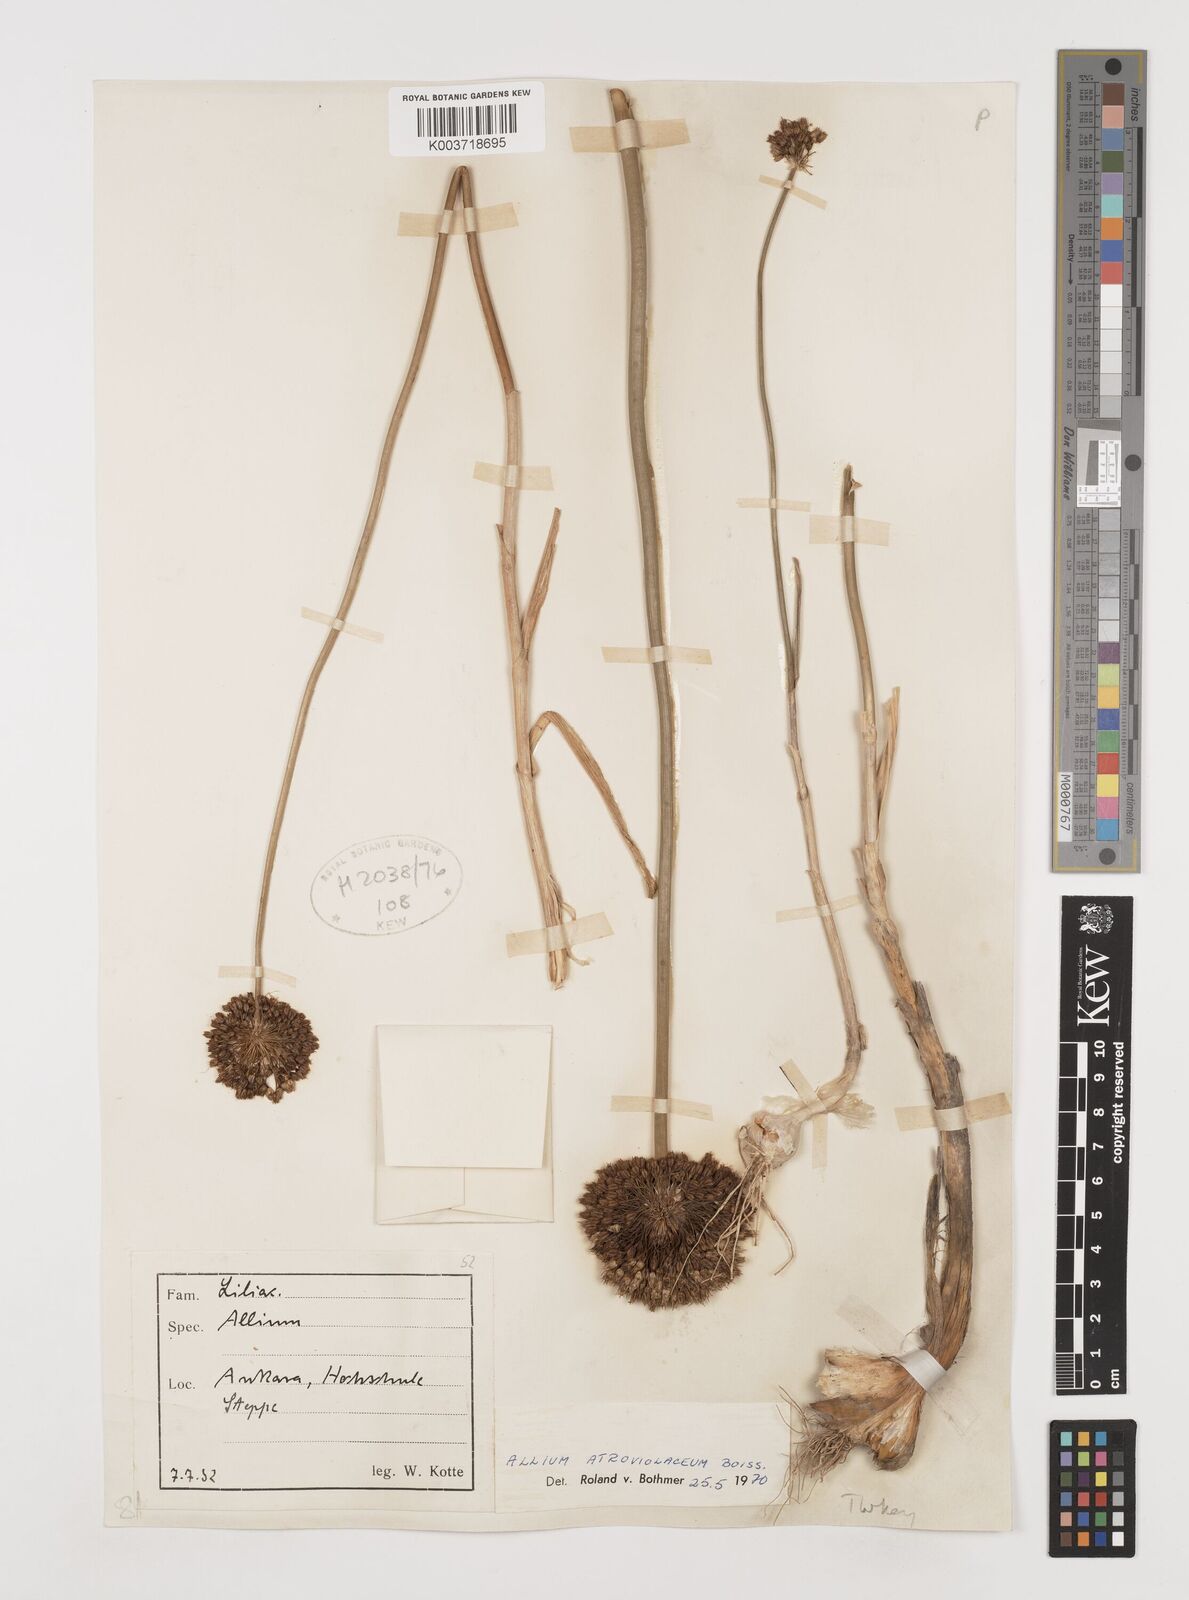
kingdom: Plantae
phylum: Tracheophyta
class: Liliopsida
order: Asparagales
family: Amaryllidaceae
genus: Allium
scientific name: Allium atroviolaceum
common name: Broadleaf wild leek
